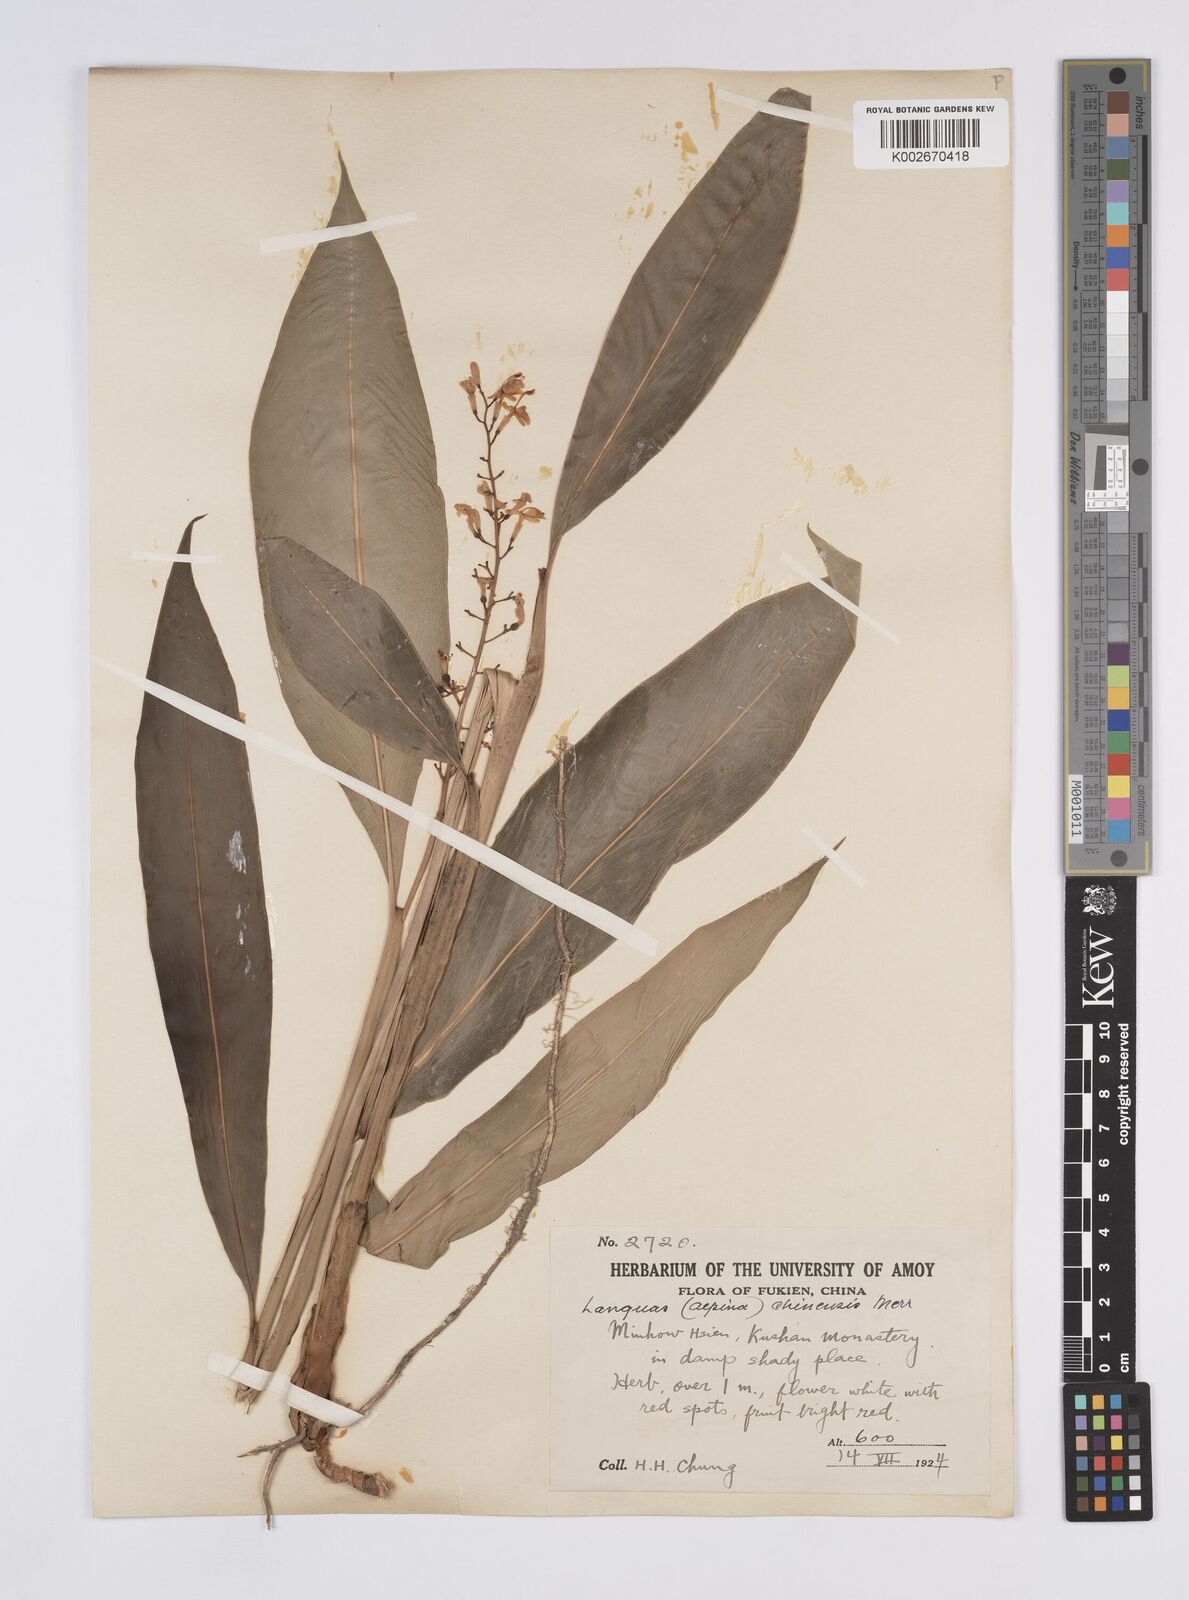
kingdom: Plantae
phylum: Tracheophyta
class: Liliopsida
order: Zingiberales
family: Zingiberaceae
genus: Alpinia
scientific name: Alpinia chinensis
